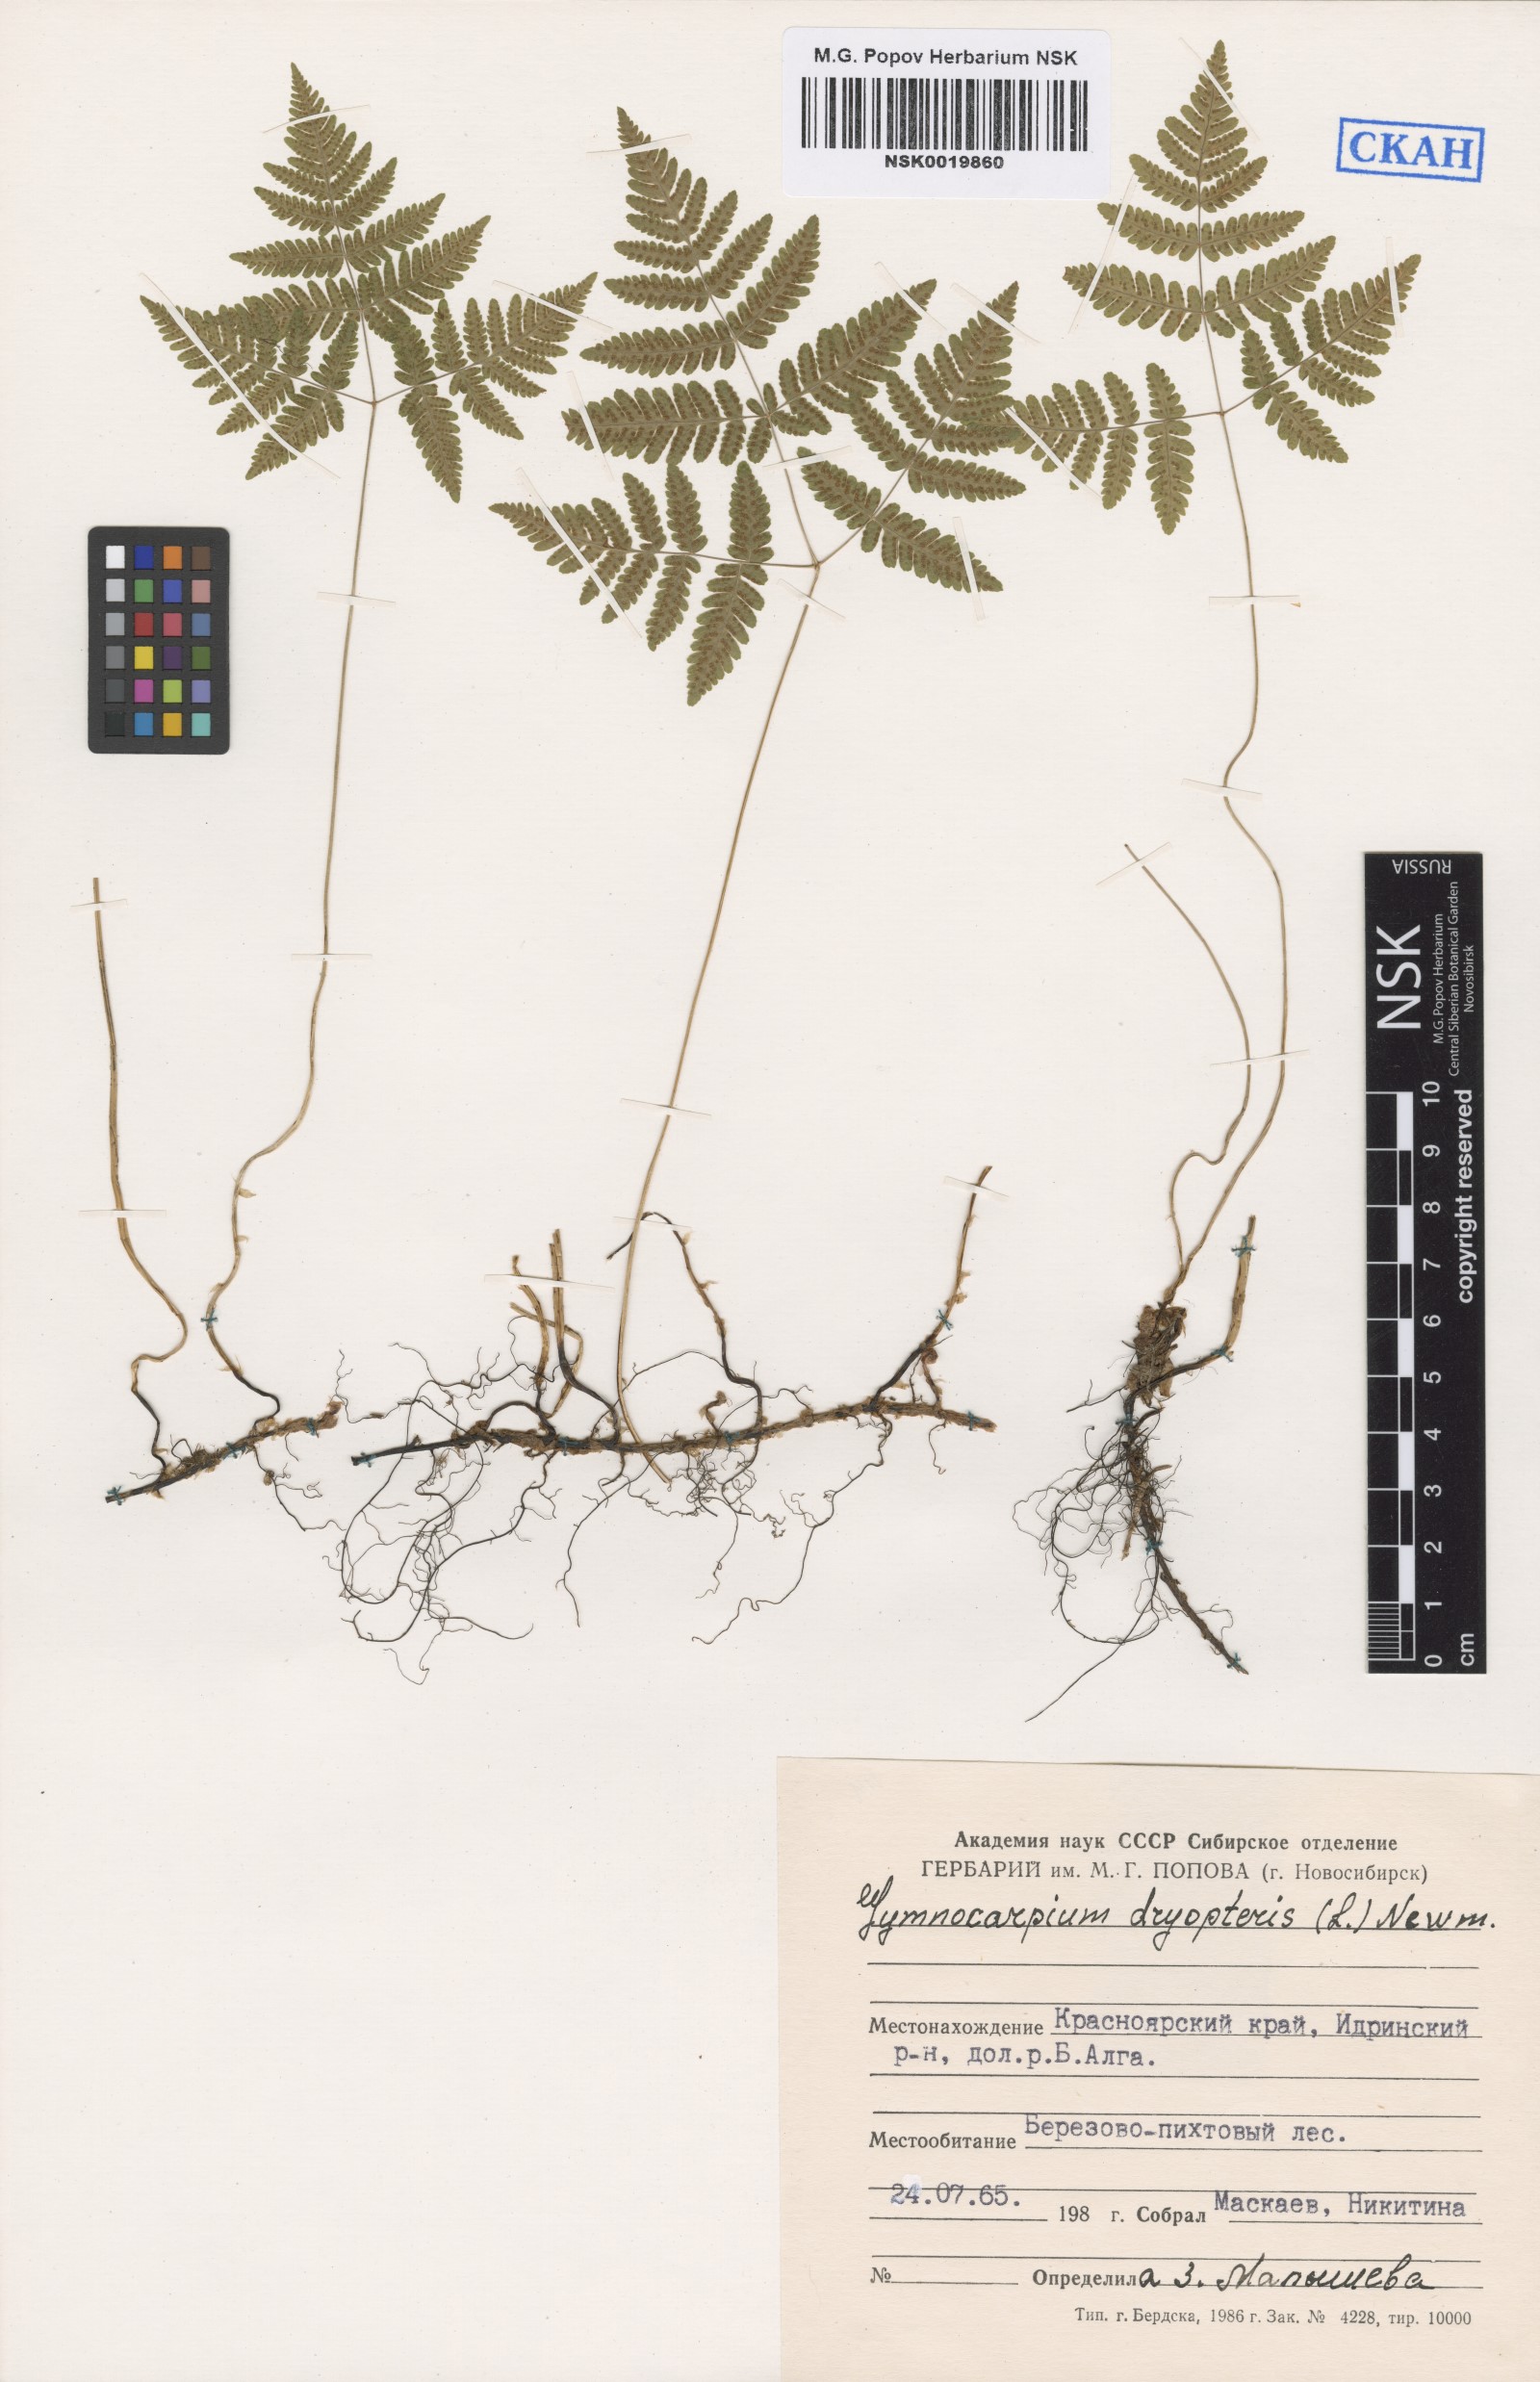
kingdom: Plantae
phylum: Tracheophyta
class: Polypodiopsida
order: Polypodiales
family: Cystopteridaceae
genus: Gymnocarpium
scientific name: Gymnocarpium dryopteris
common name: Oak fern
